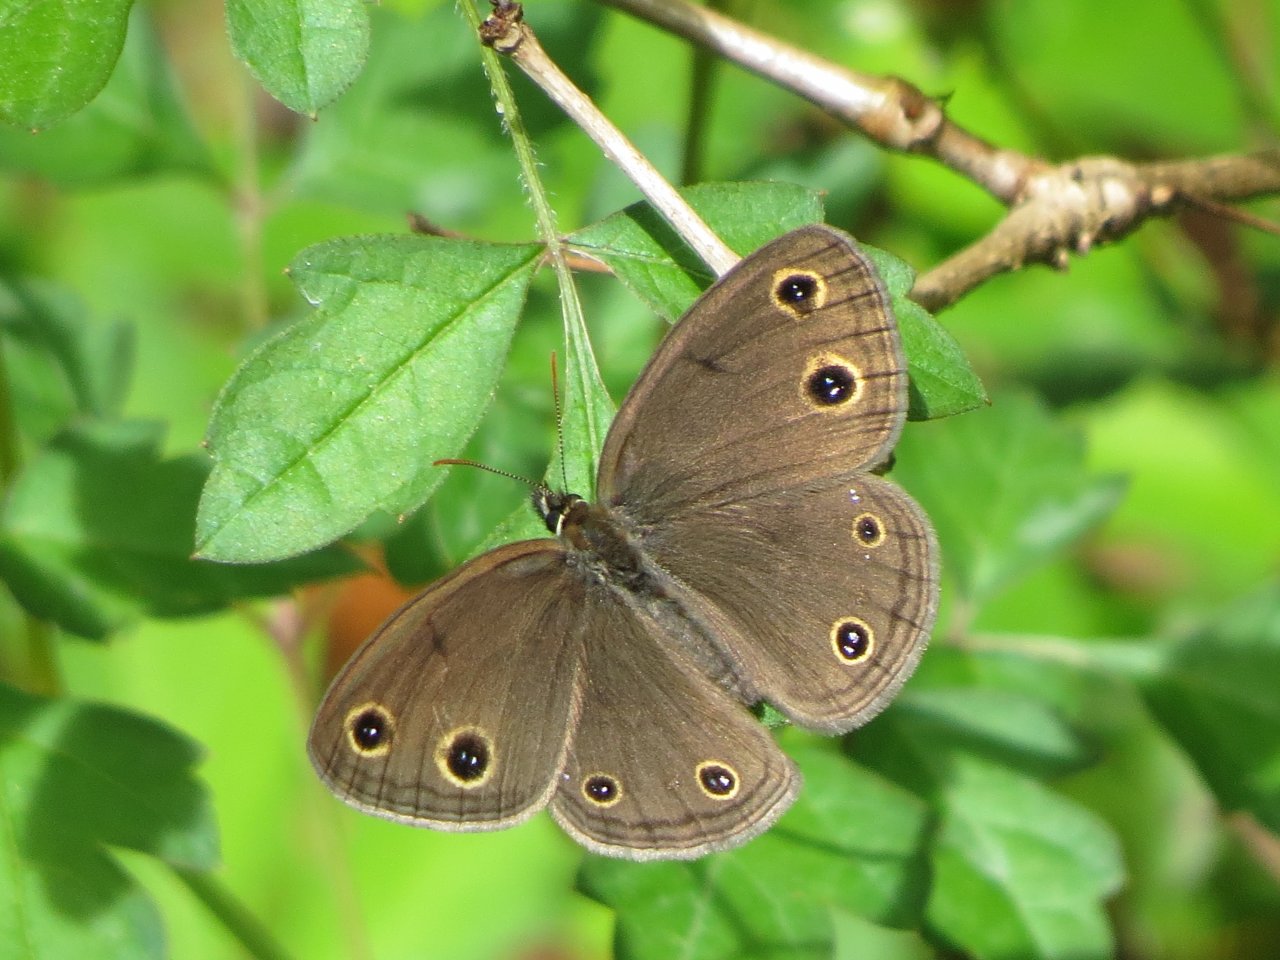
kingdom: Animalia
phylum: Arthropoda
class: Insecta
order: Lepidoptera
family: Nymphalidae
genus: Euptychia
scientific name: Euptychia cymela
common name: Little Wood Satyr
